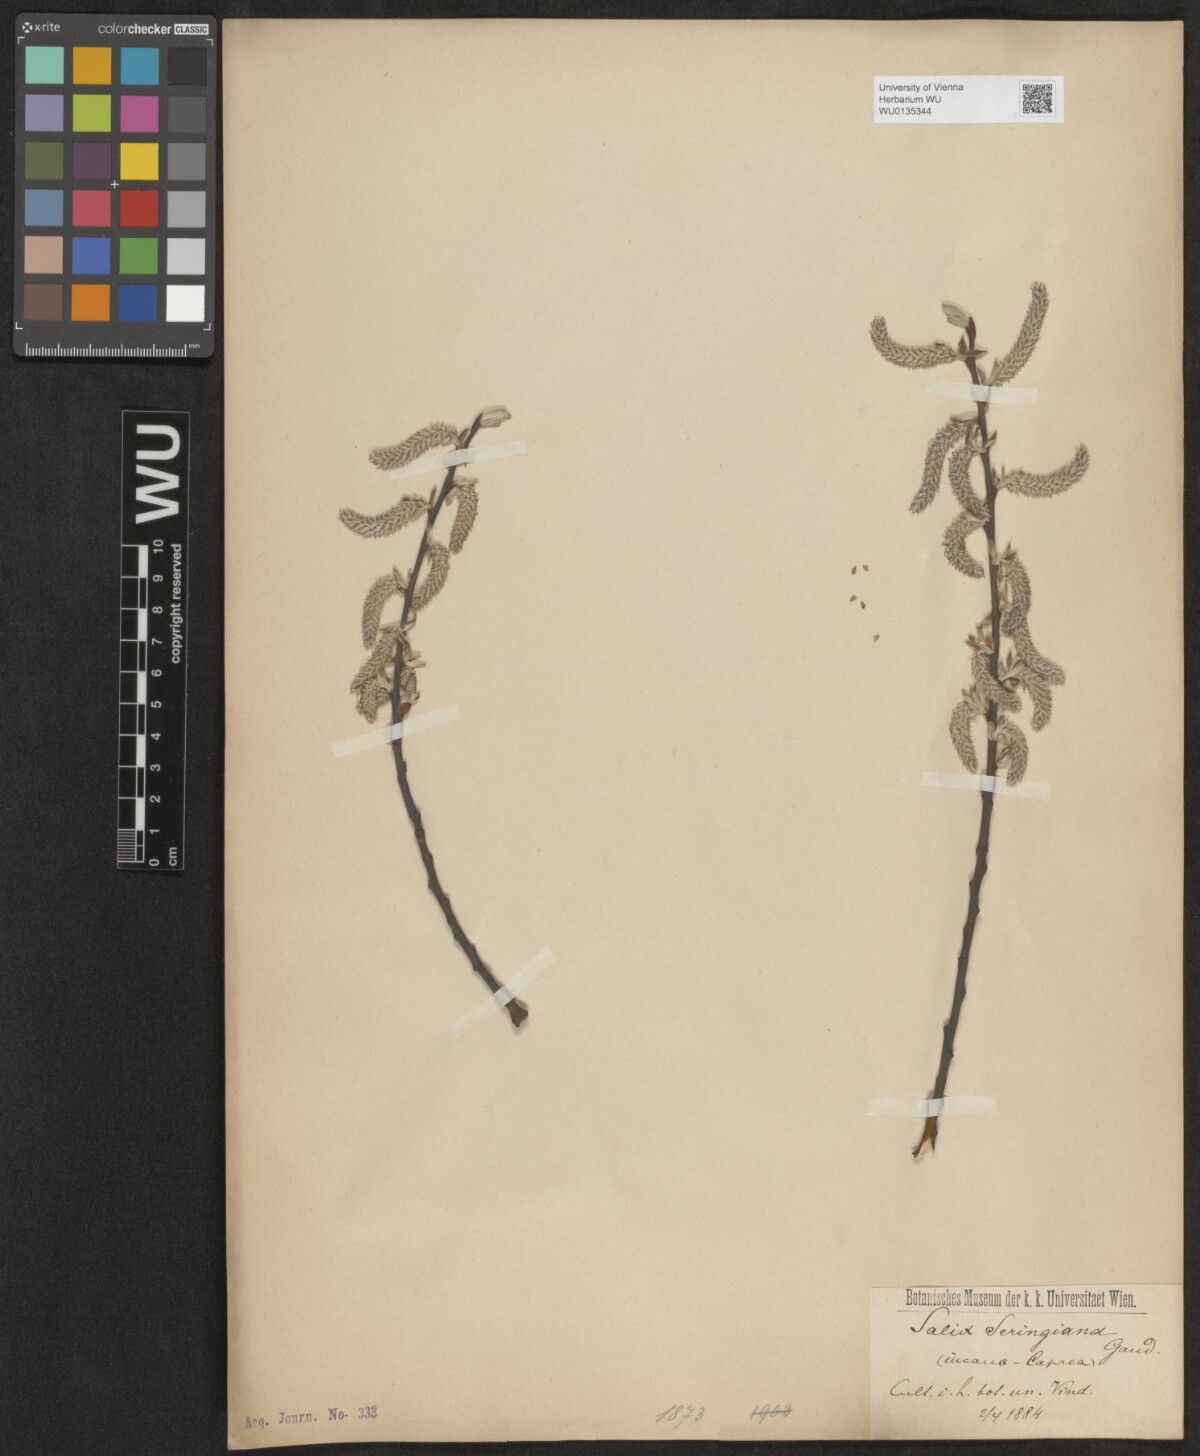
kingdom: Plantae
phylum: Tracheophyta
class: Magnoliopsida
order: Malpighiales
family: Salicaceae
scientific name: Salicaceae
